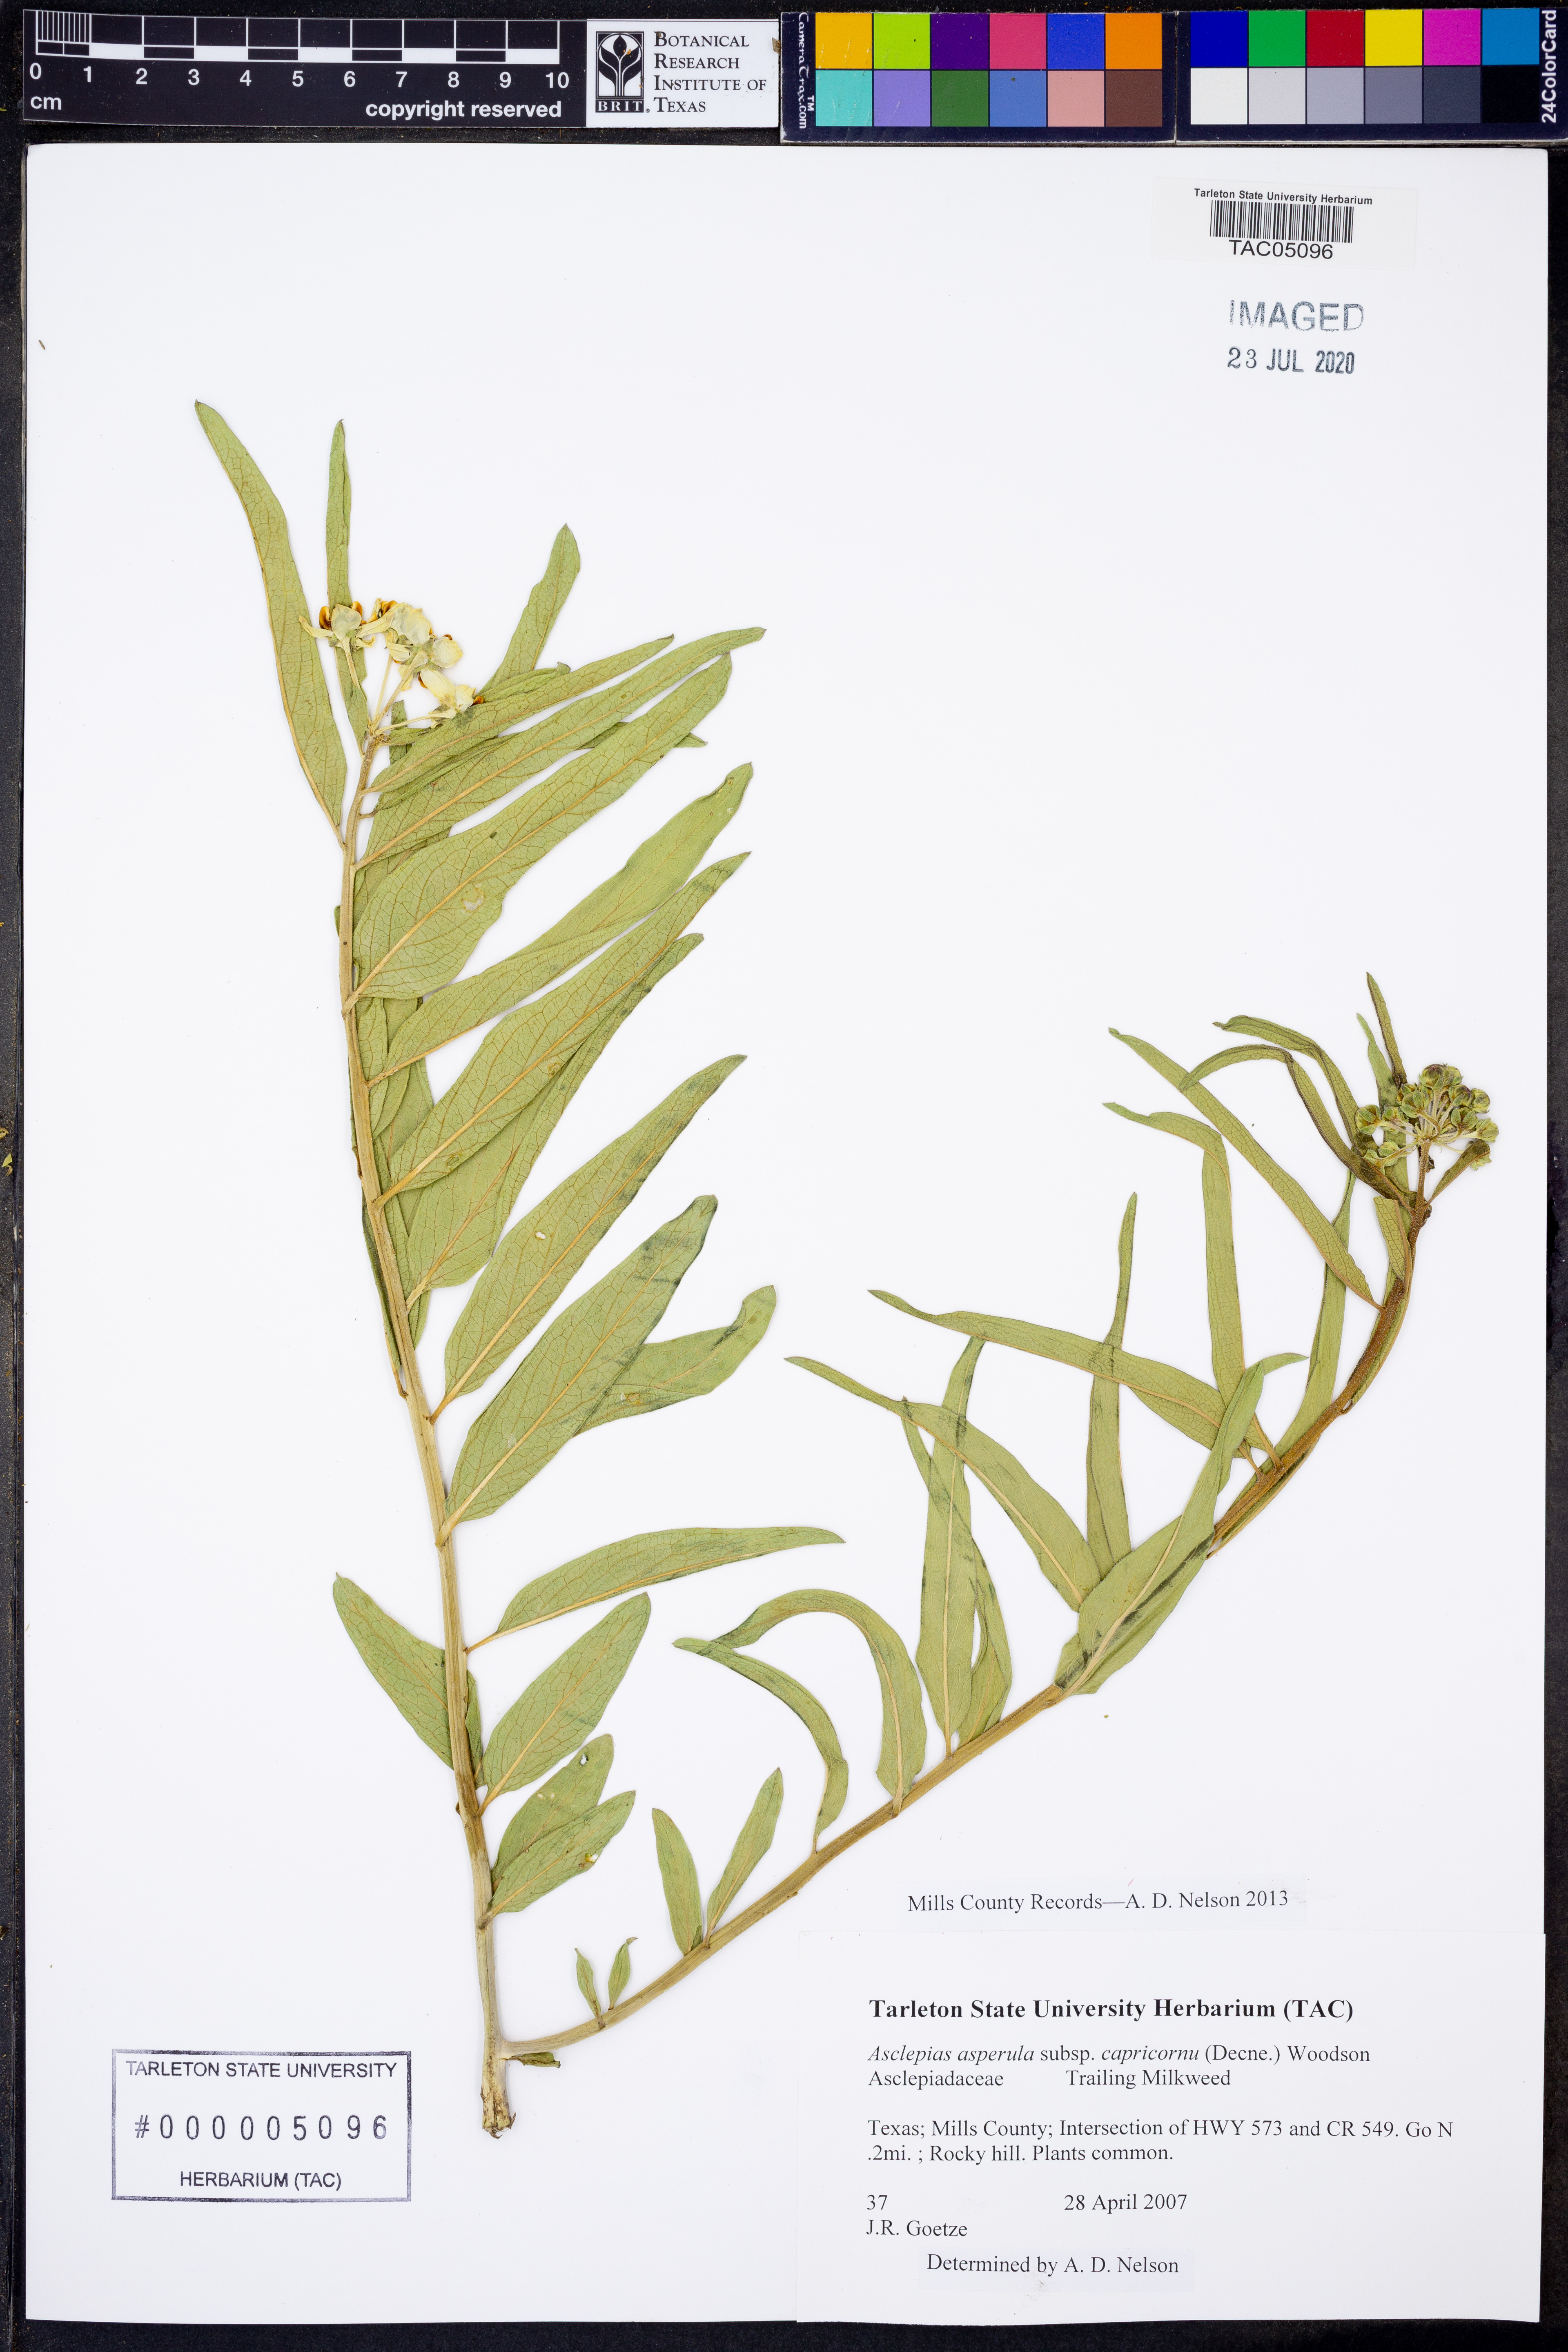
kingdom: Plantae
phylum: Tracheophyta
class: Magnoliopsida
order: Gentianales
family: Apocynaceae
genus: Asclepias
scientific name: Asclepias asperula
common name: Antelope horns
